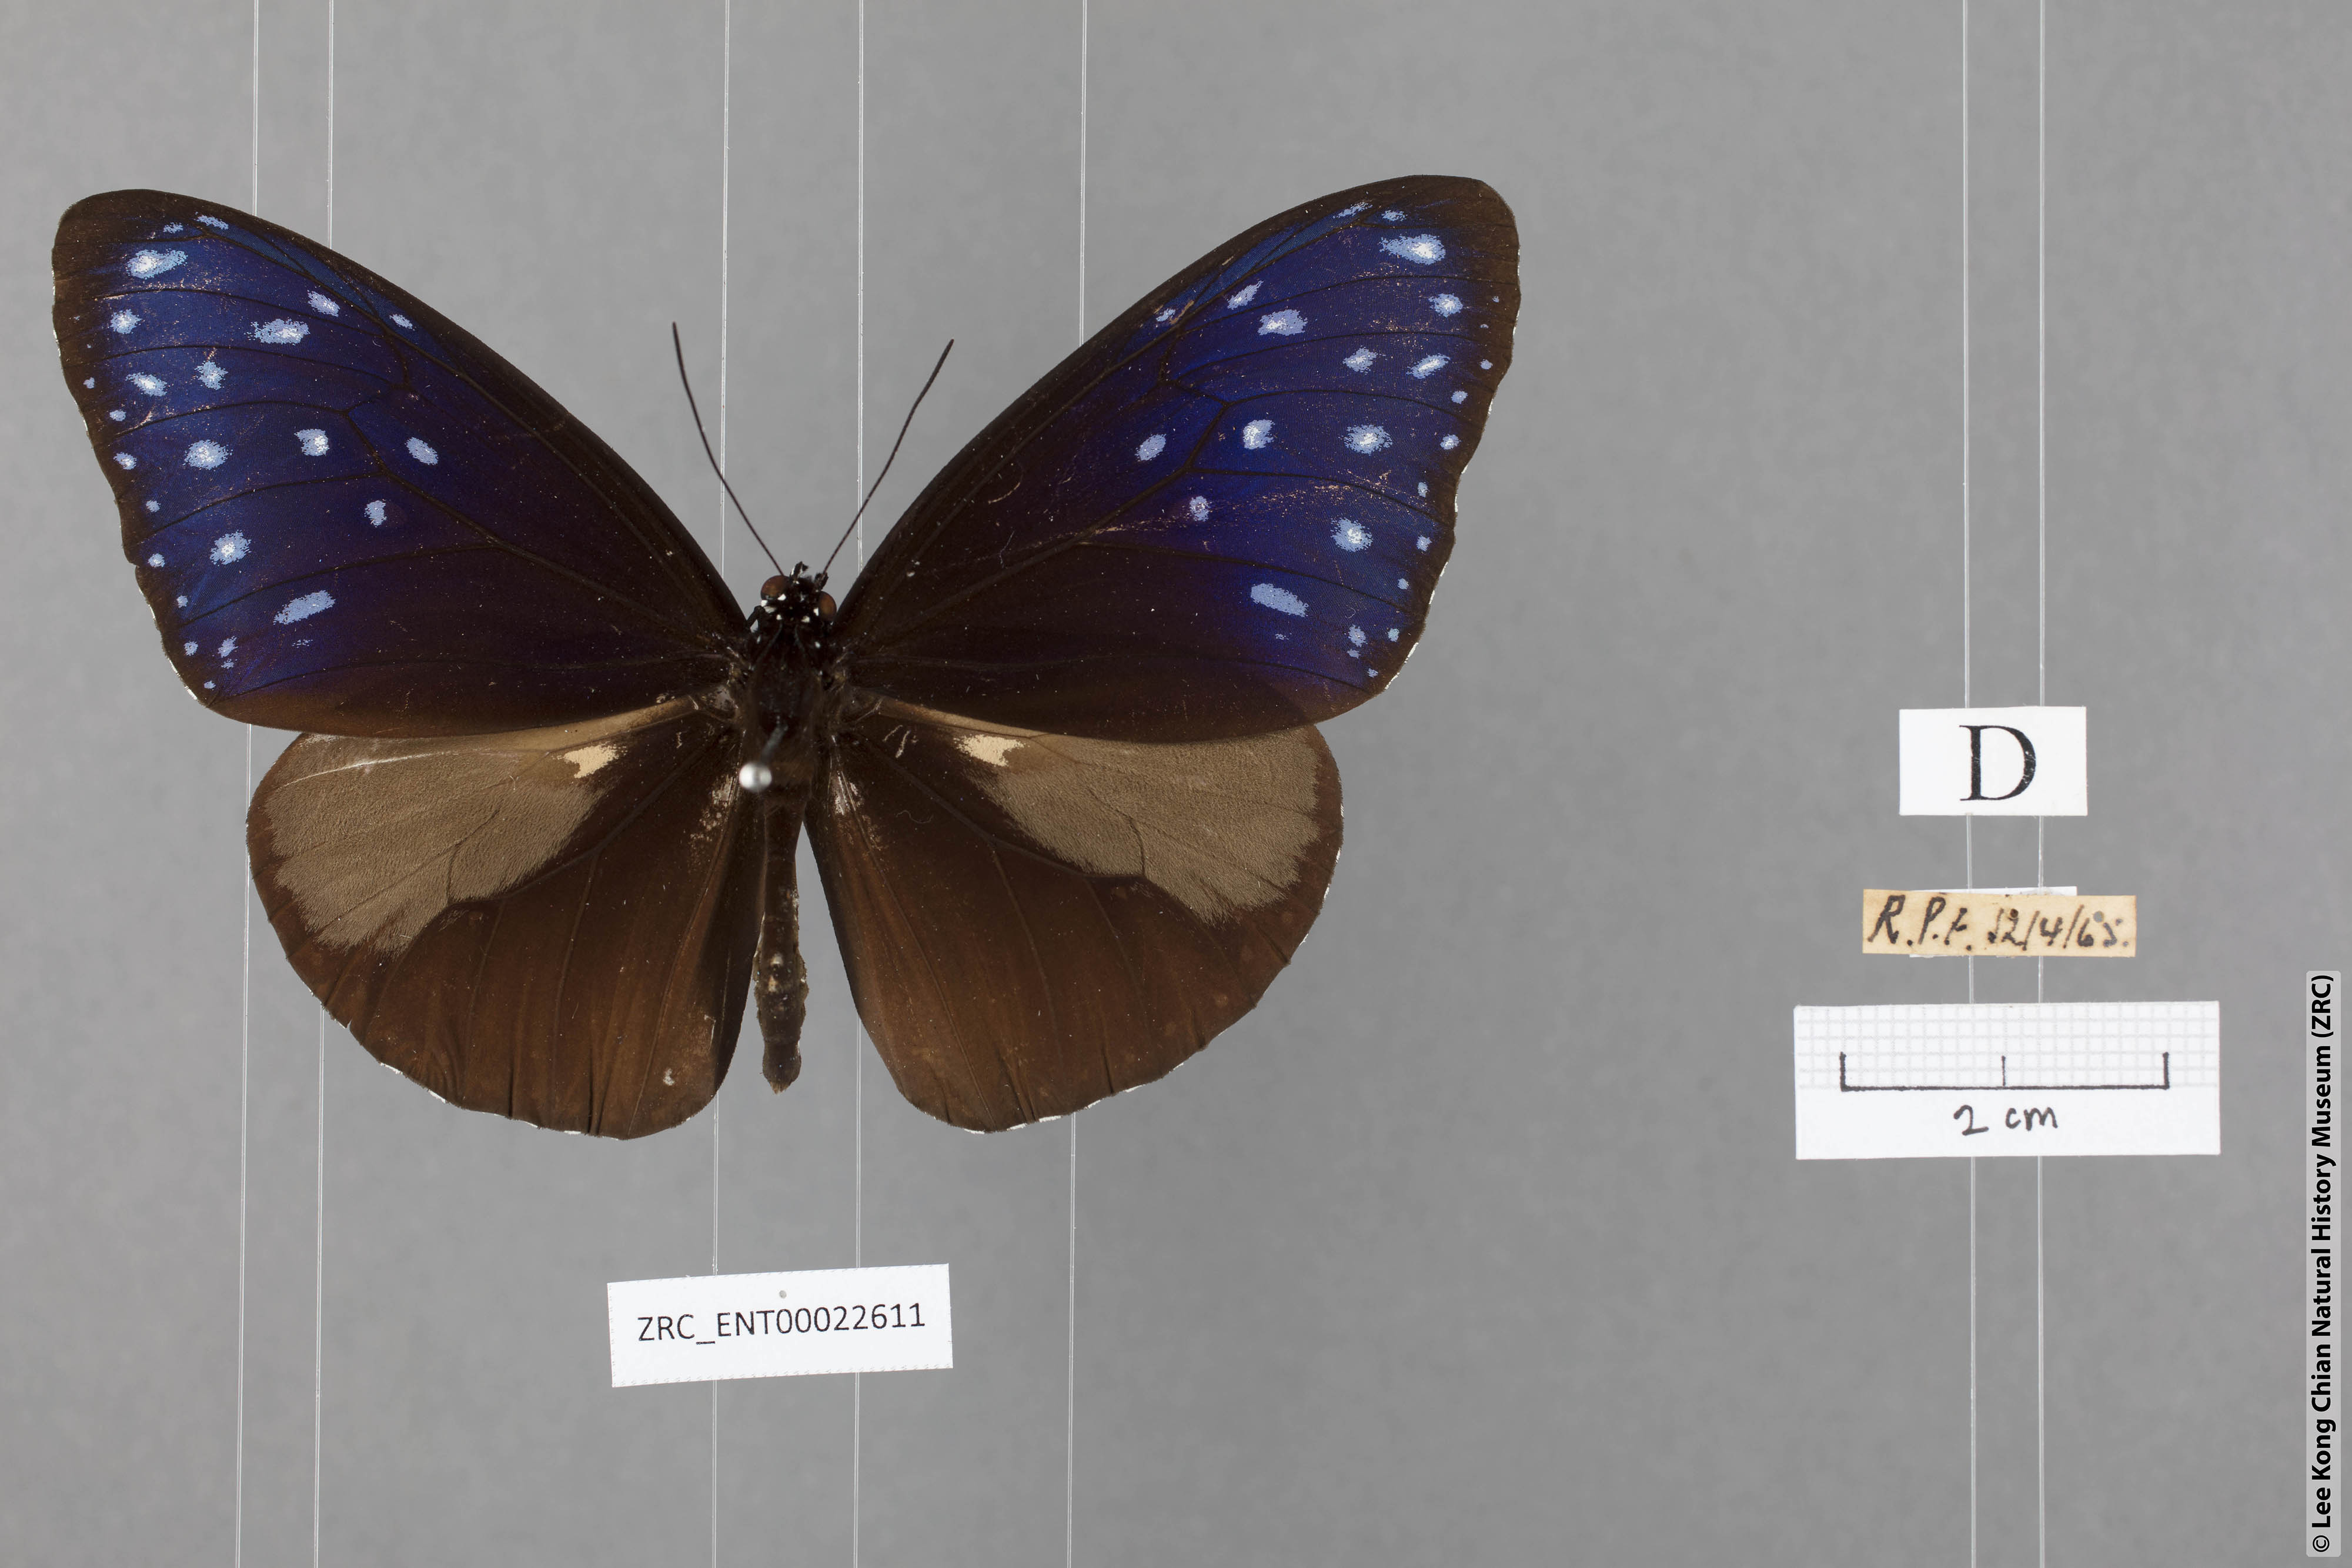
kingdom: Animalia
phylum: Arthropoda
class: Insecta
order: Lepidoptera
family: Nymphalidae
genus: Euploea
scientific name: Euploea mulciber
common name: Striped blue crow butterfly
